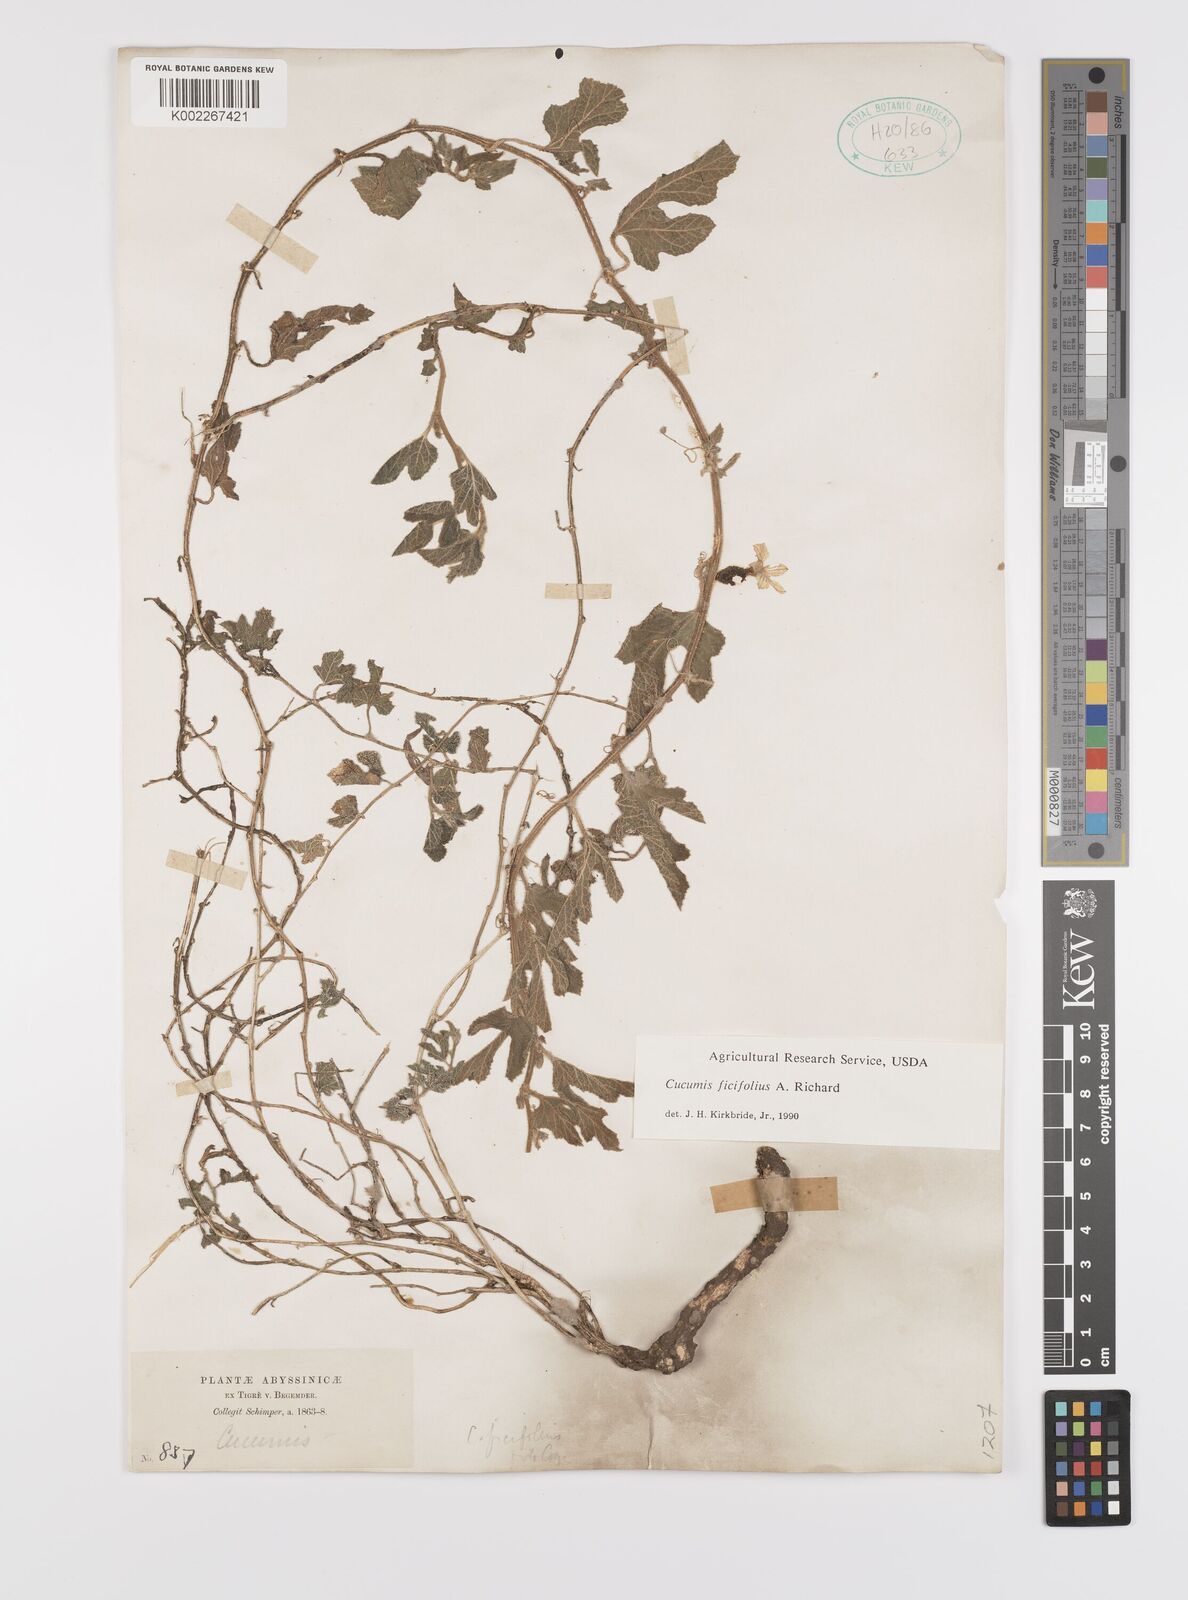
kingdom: Plantae
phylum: Tracheophyta
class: Magnoliopsida
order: Cucurbitales
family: Cucurbitaceae
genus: Cucumis
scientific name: Cucumis ficifolius
